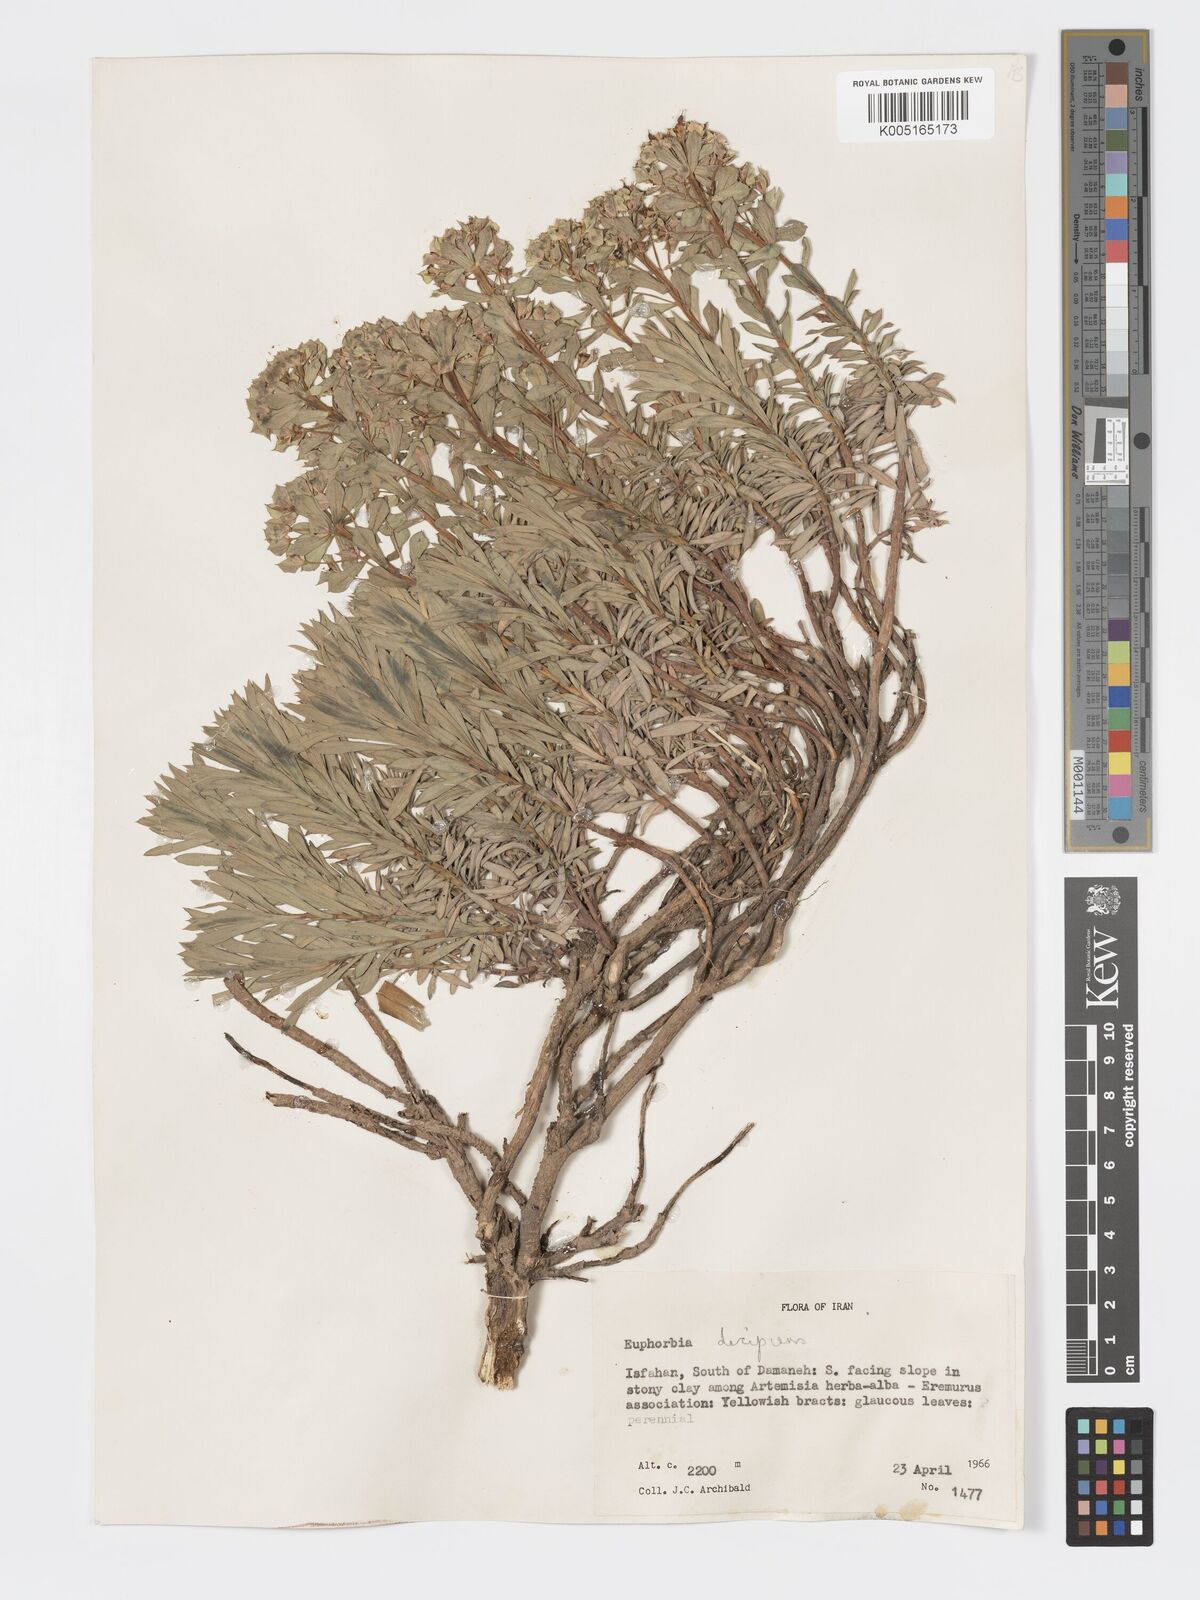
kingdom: Plantae
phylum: Tracheophyta
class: Magnoliopsida
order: Malpighiales
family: Euphorbiaceae
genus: Euphorbia
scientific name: Euphorbia polycaulis
